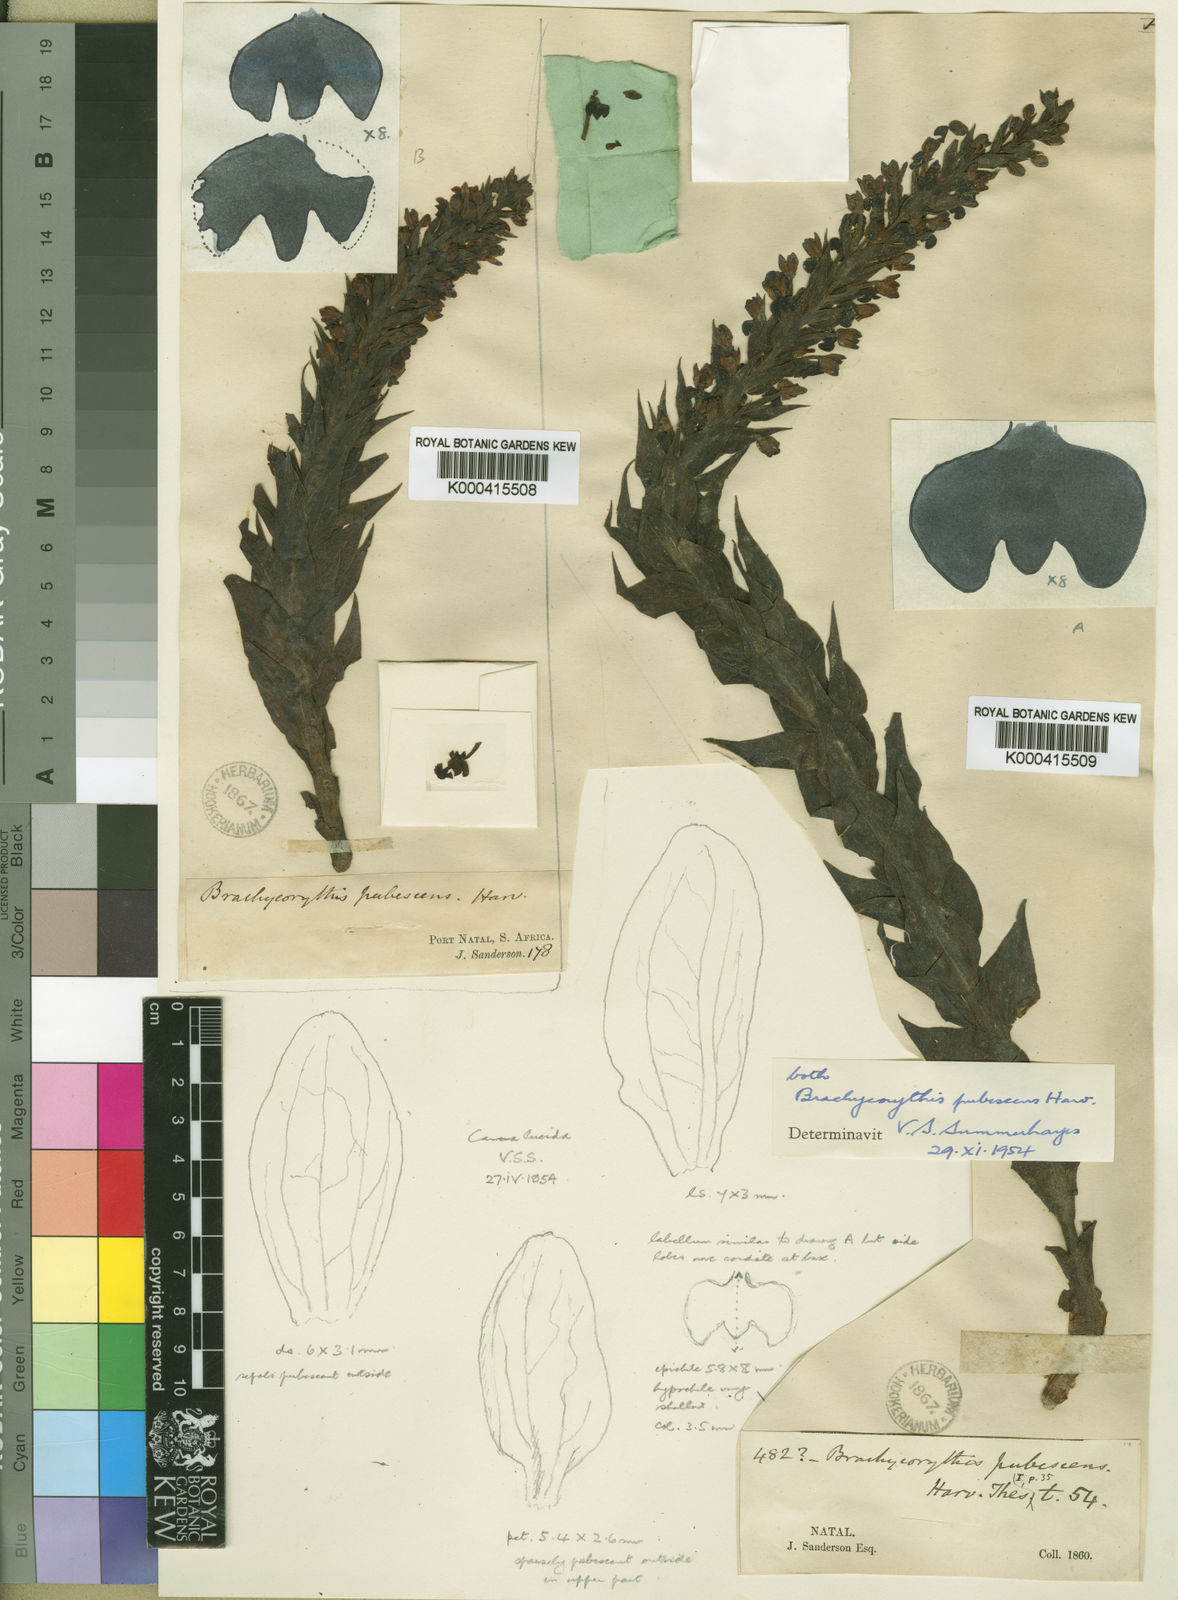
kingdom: Plantae
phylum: Tracheophyta
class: Liliopsida
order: Asparagales
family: Orchidaceae
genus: Brachycorythis
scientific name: Brachycorythis pubescens
